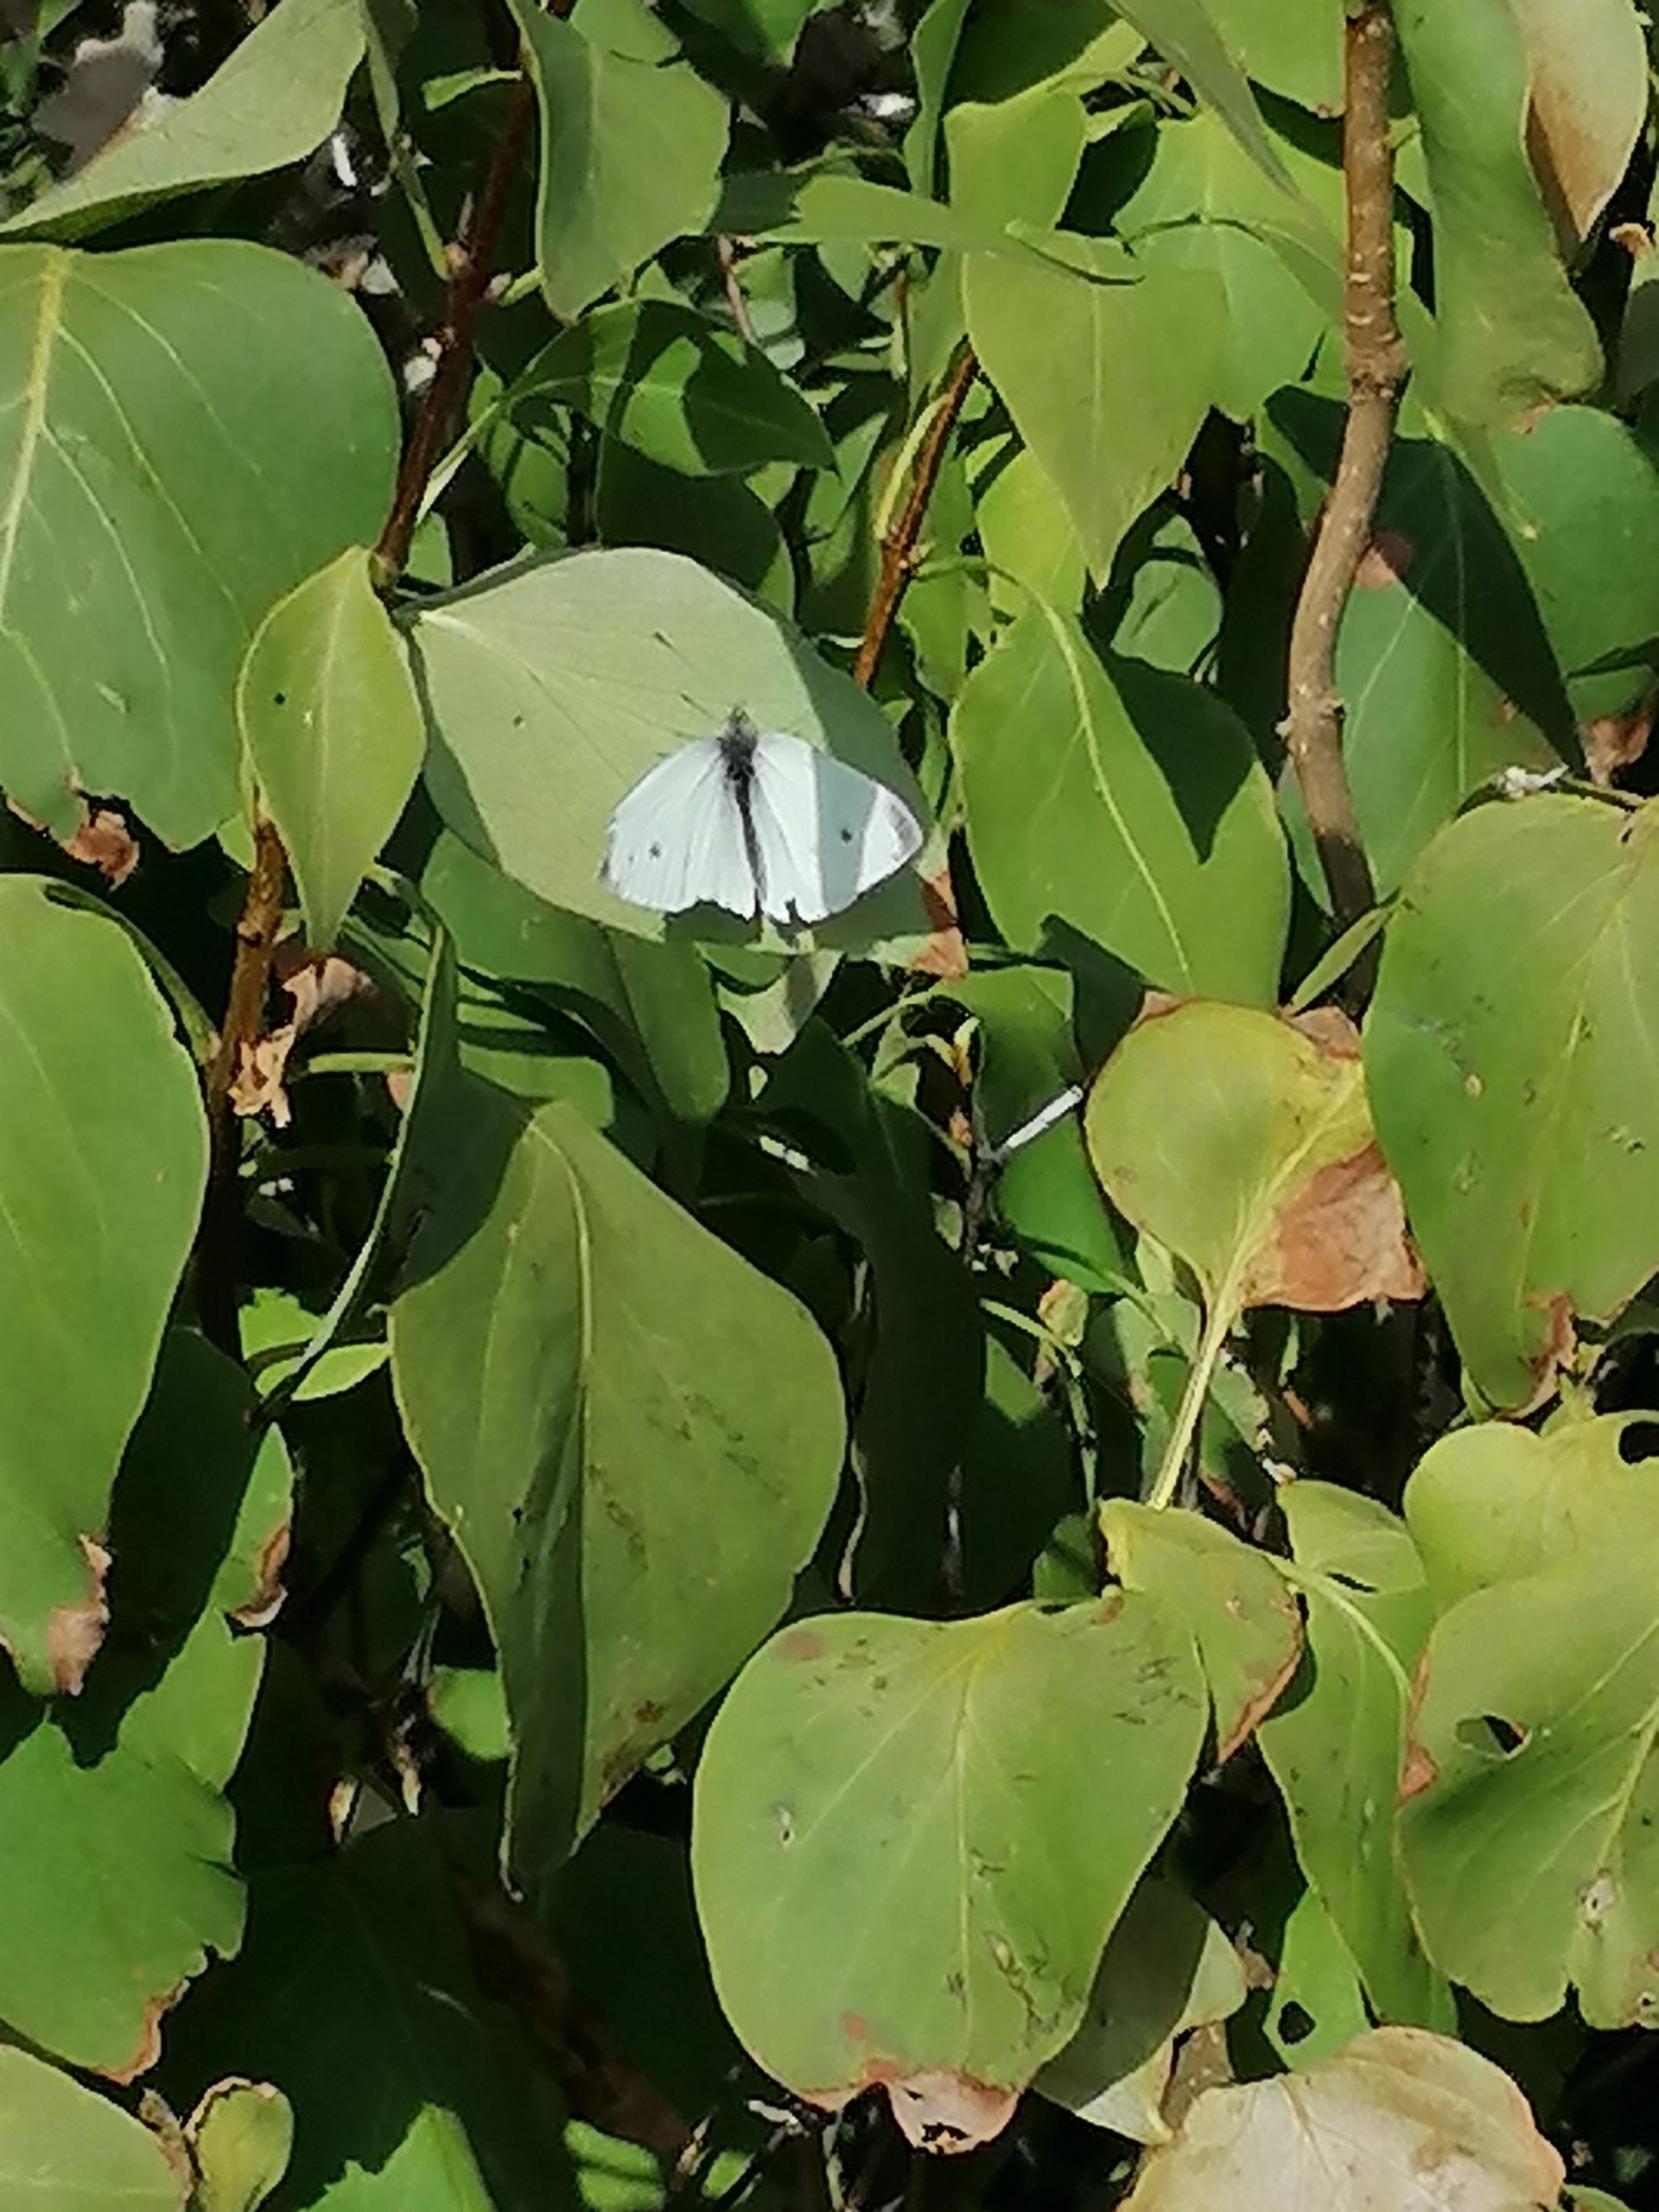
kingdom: Animalia
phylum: Arthropoda
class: Insecta
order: Lepidoptera
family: Pieridae
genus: Pieris
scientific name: Pieris rapae
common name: Lille kålsommerfugl
